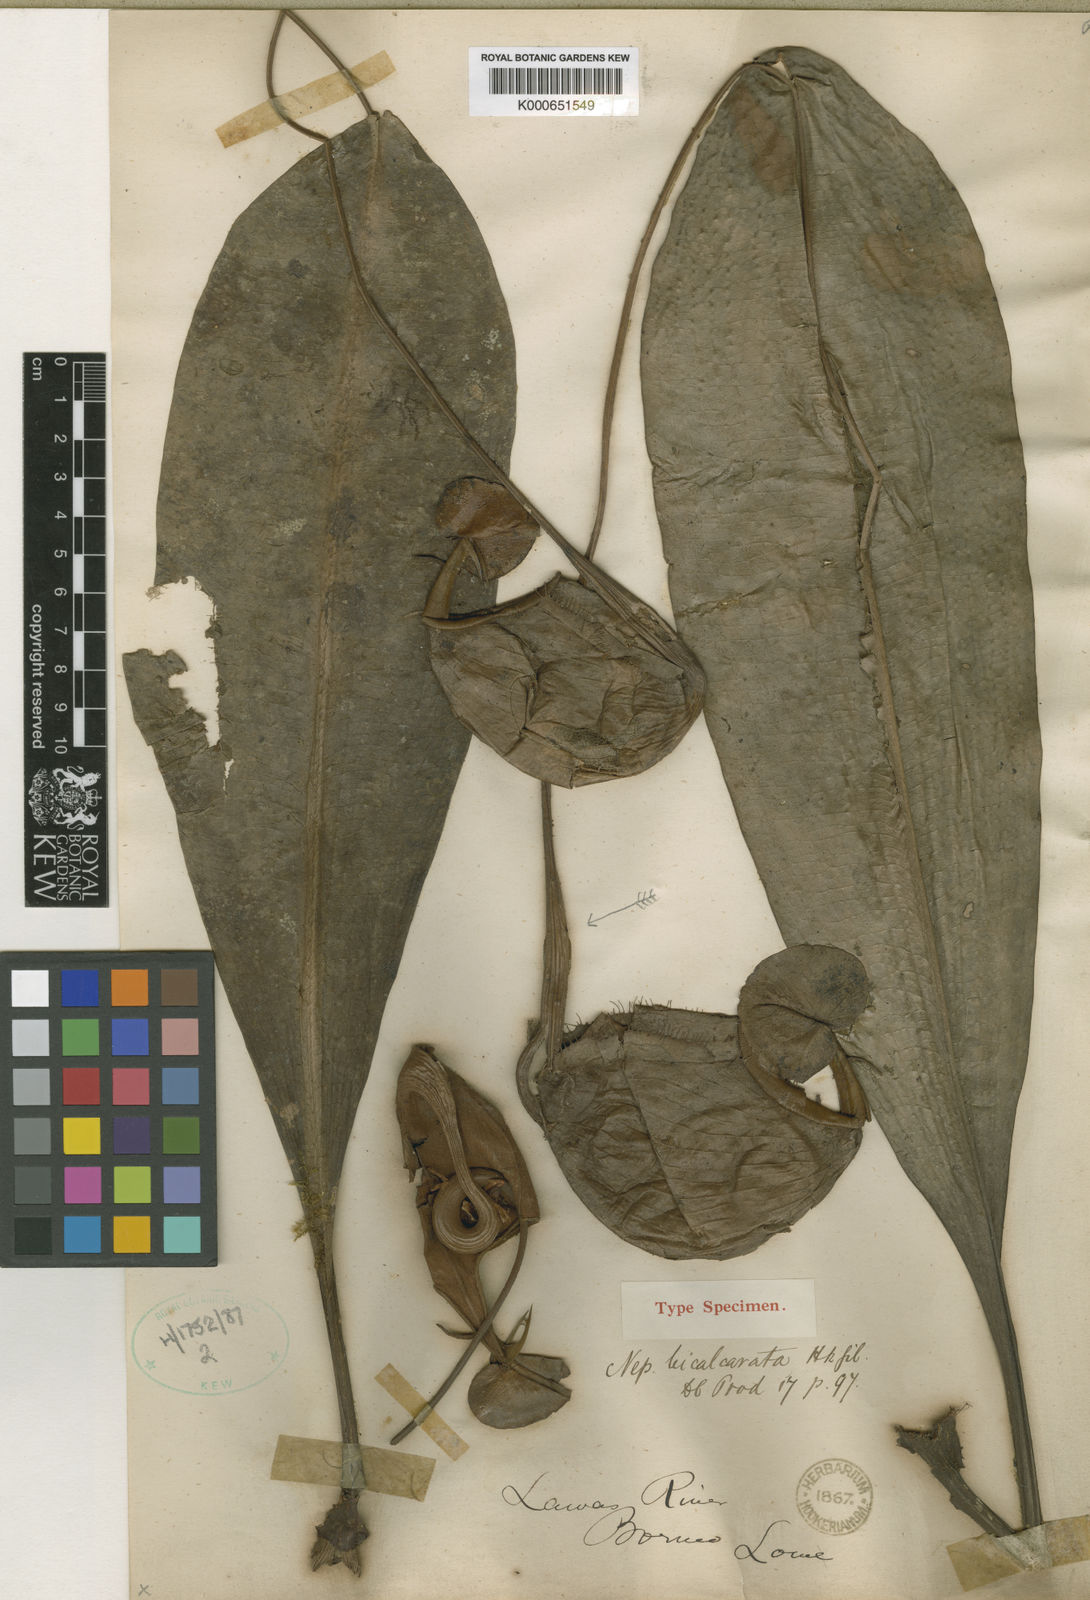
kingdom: Plantae
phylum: Tracheophyta
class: Magnoliopsida
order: Caryophyllales
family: Nepenthaceae
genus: Nepenthes
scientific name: Nepenthes bicalcarata
